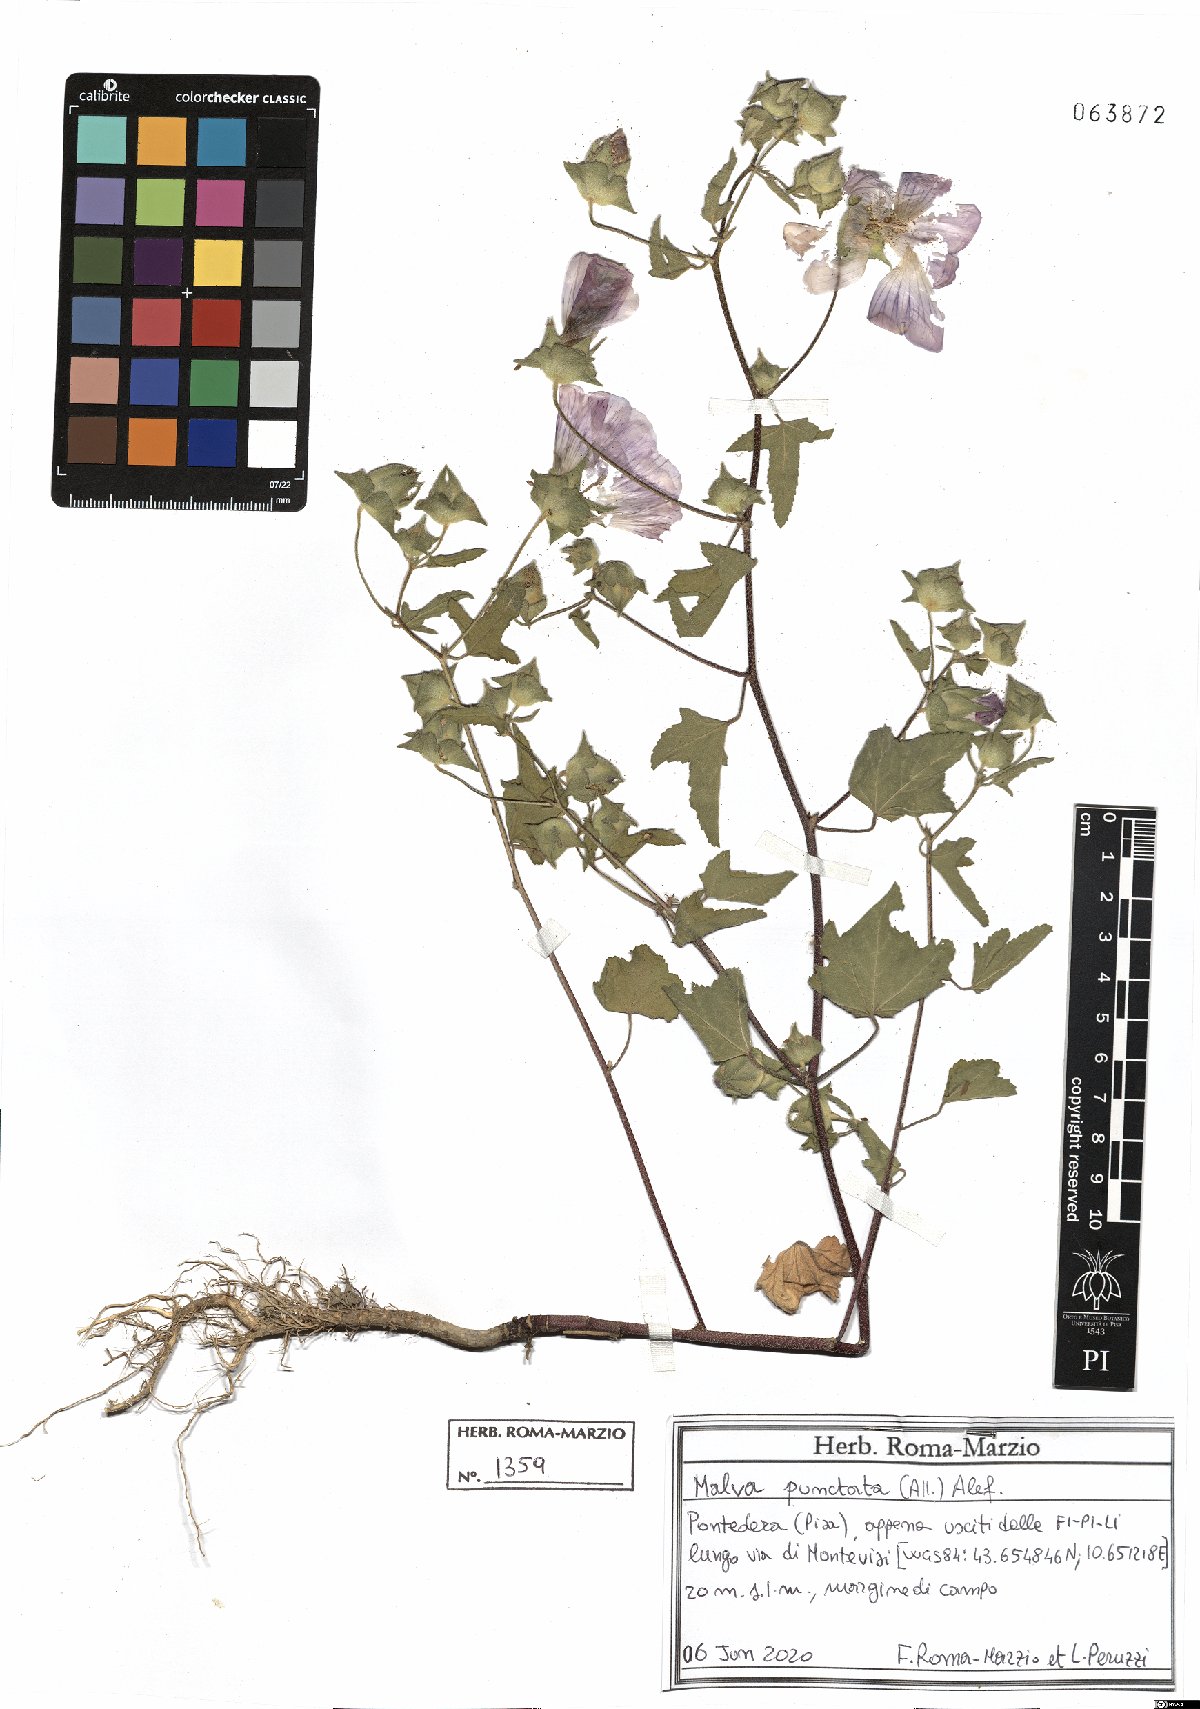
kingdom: Plantae
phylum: Tracheophyta
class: Magnoliopsida
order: Malvales
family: Malvaceae
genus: Malva
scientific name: Malva punctata
